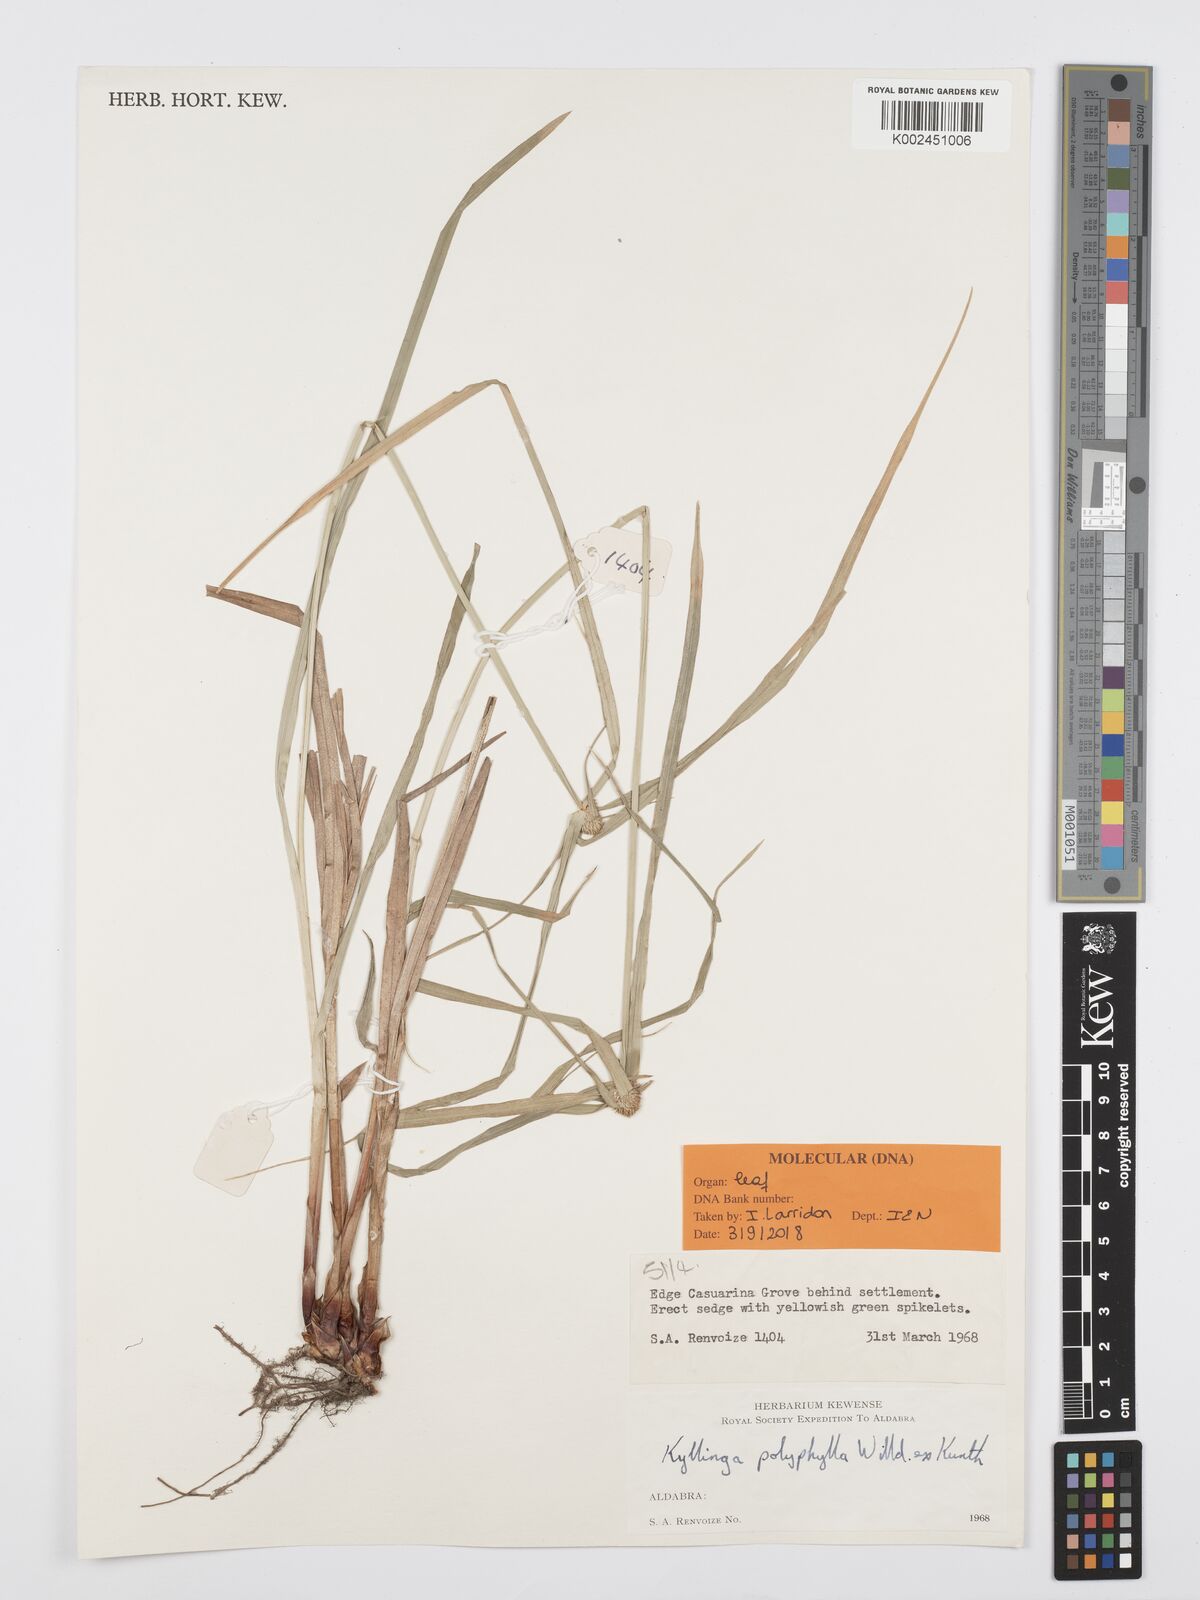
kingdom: Plantae
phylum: Tracheophyta
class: Liliopsida
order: Poales
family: Cyperaceae
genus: Cyperus
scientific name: Cyperus
